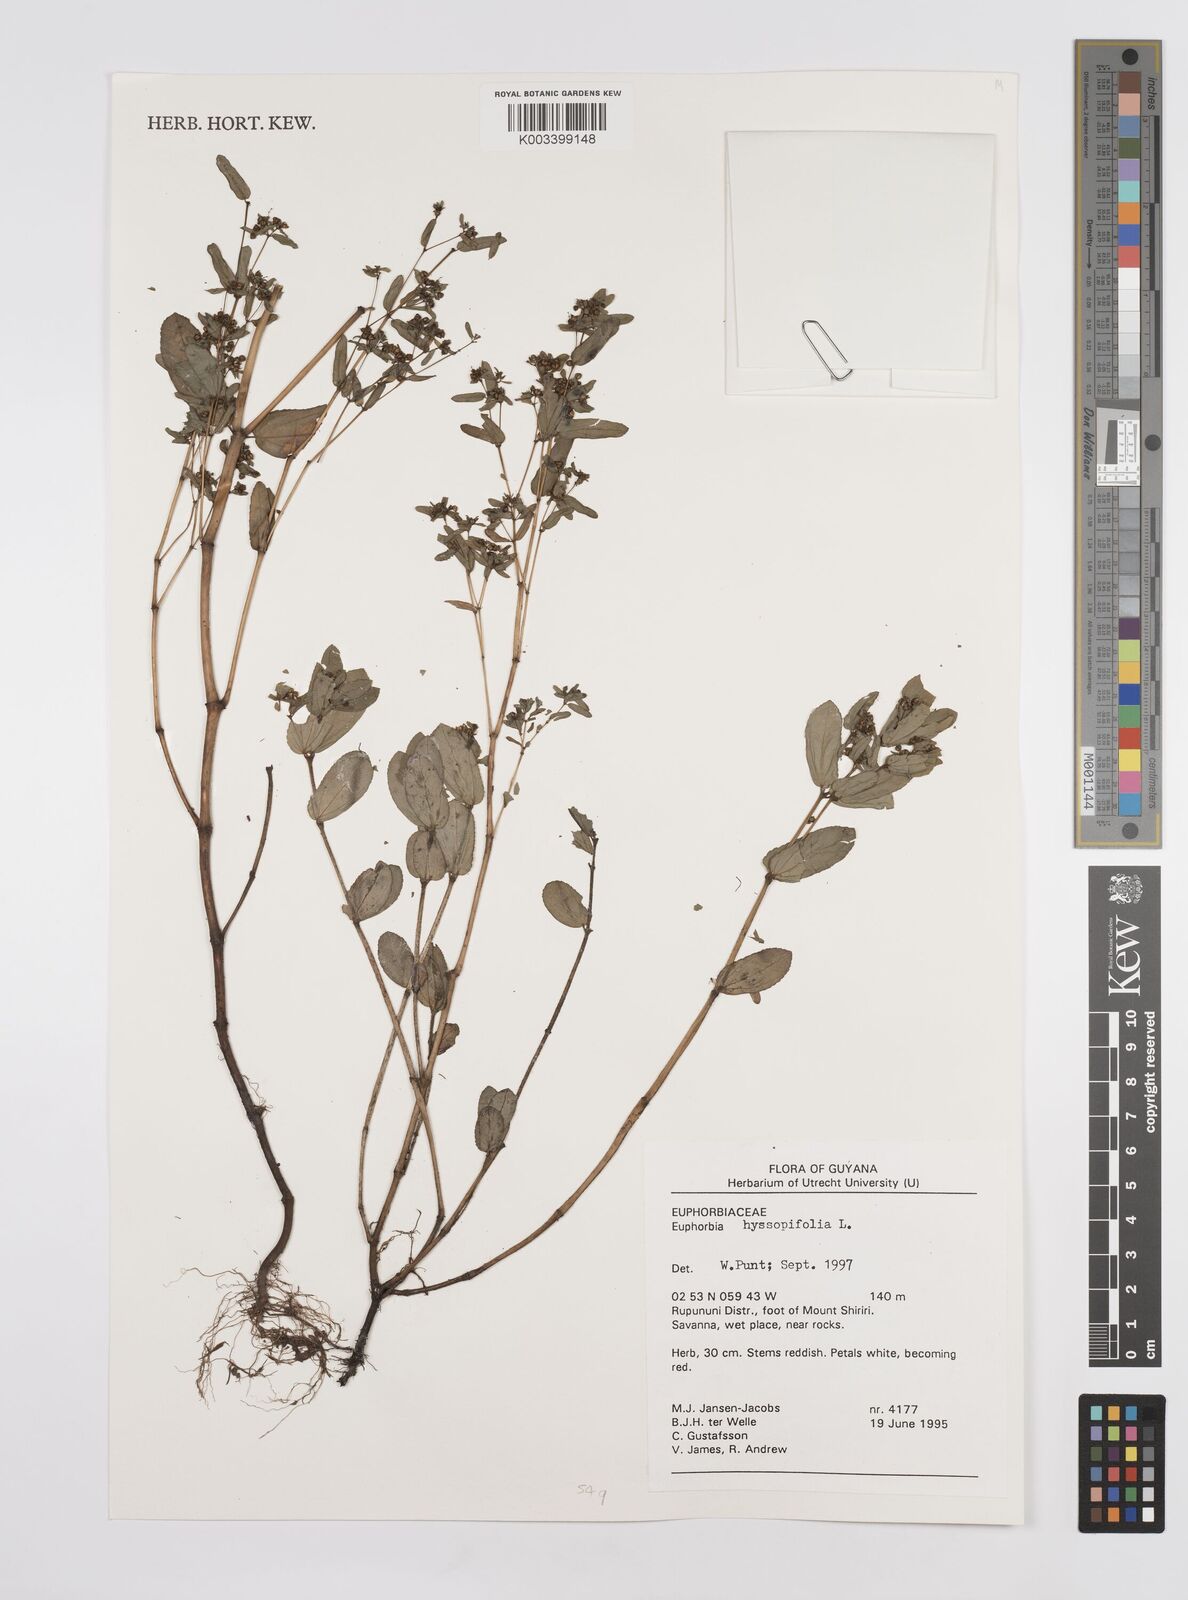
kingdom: Plantae
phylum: Tracheophyta
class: Magnoliopsida
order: Malpighiales
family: Euphorbiaceae
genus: Euphorbia
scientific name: Euphorbia hyssopifolia
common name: Hyssopleaf sandmat
